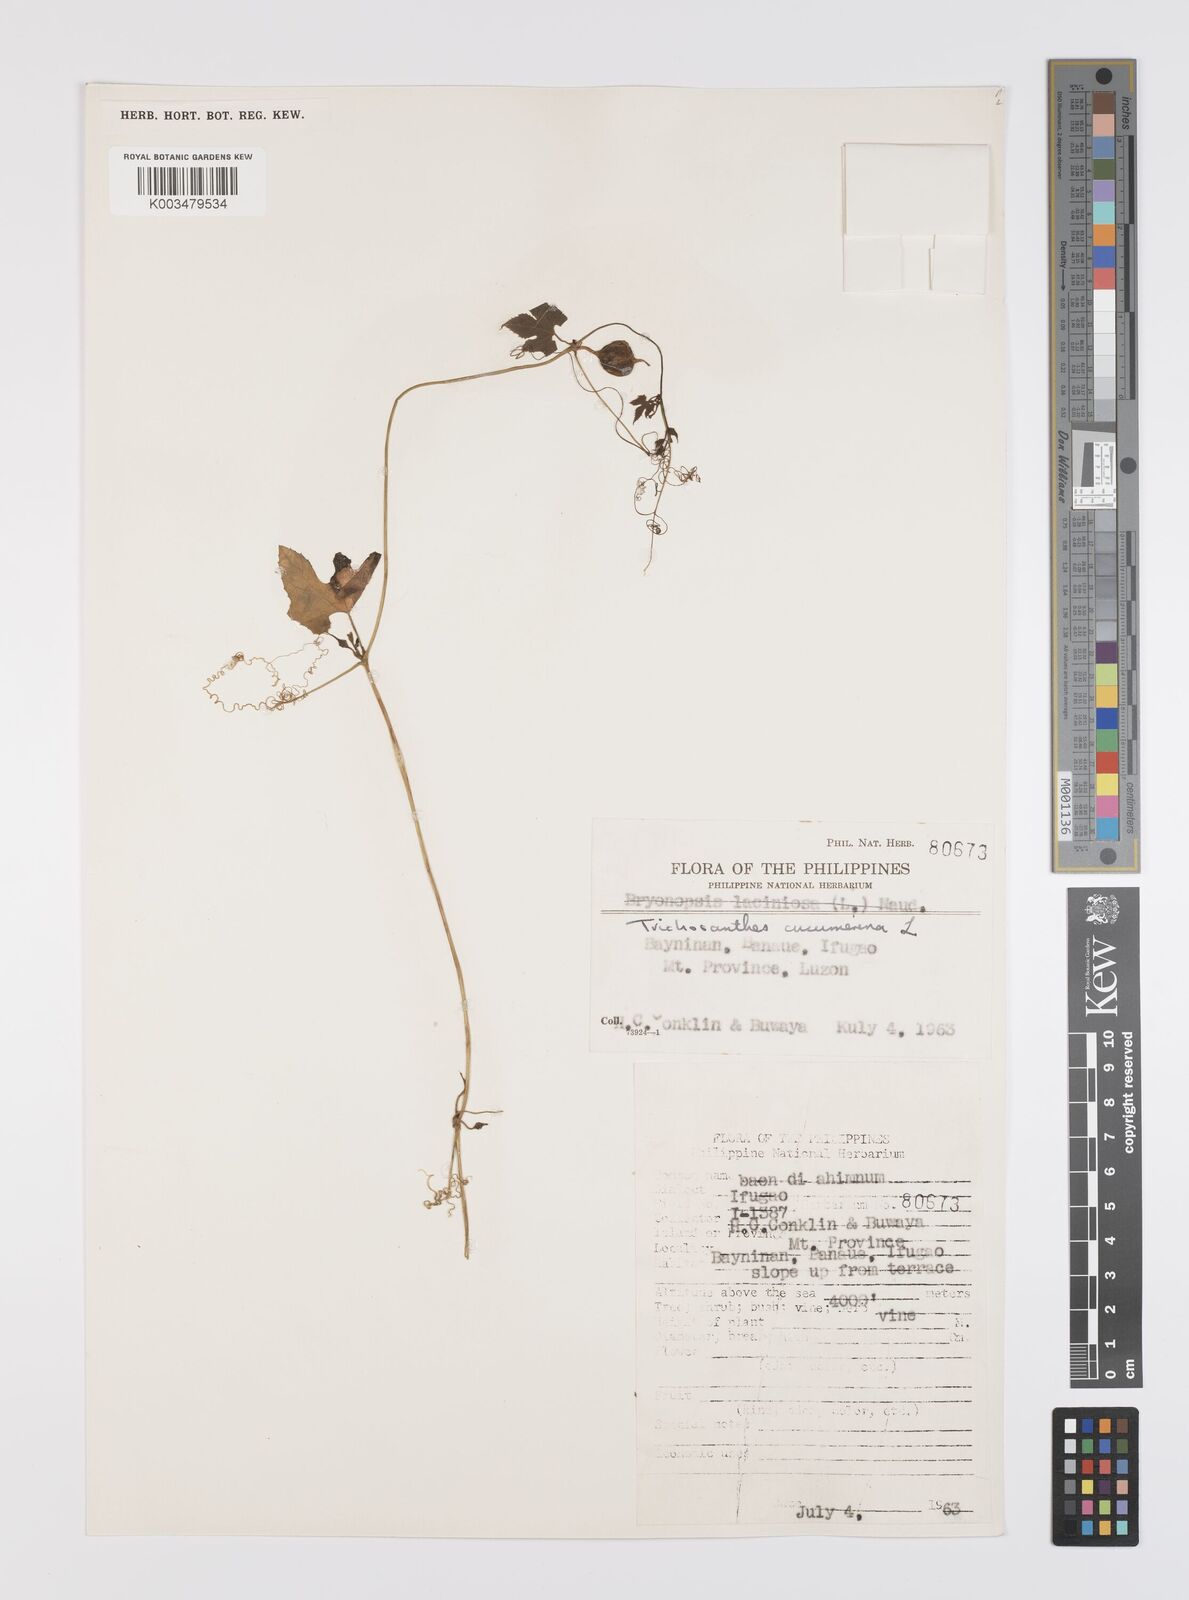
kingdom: Plantae
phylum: Tracheophyta
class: Magnoliopsida
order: Cucurbitales
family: Cucurbitaceae
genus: Trichosanthes
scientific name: Trichosanthes cucumerina
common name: Snakegourd
